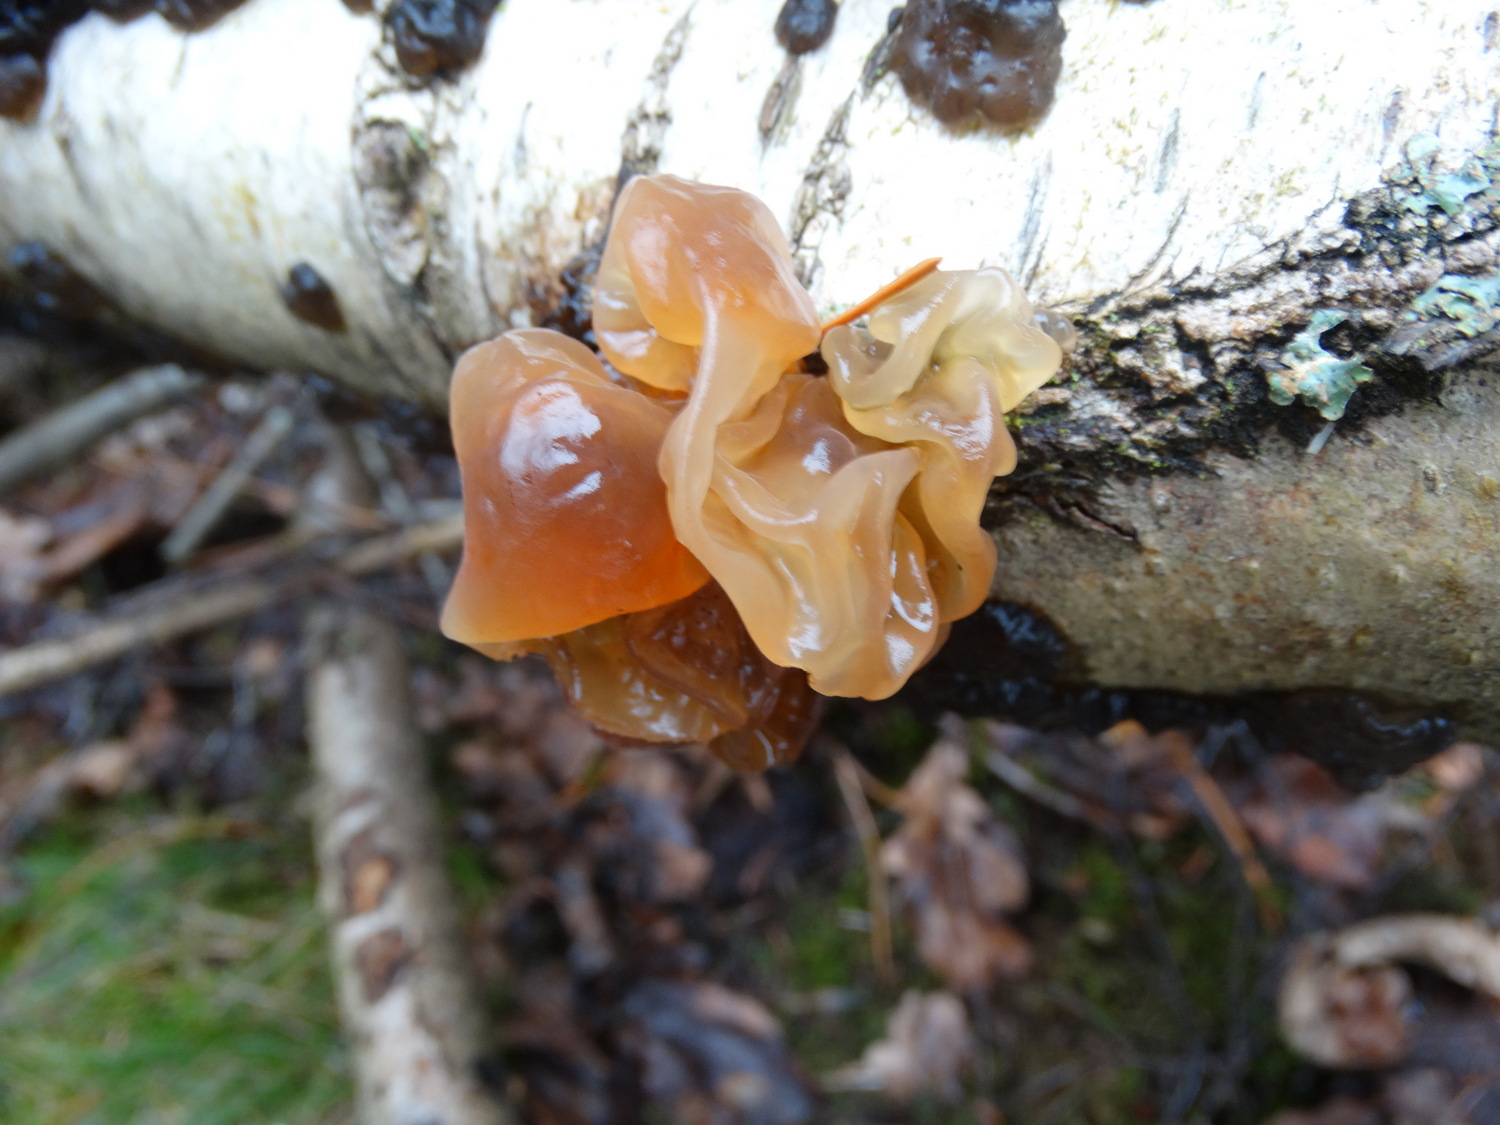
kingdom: Fungi
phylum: Basidiomycota
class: Tremellomycetes
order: Tremellales
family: Tremellaceae
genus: Phaeotremella
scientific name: Phaeotremella frondosa
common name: kæmpe-bævresvamp
